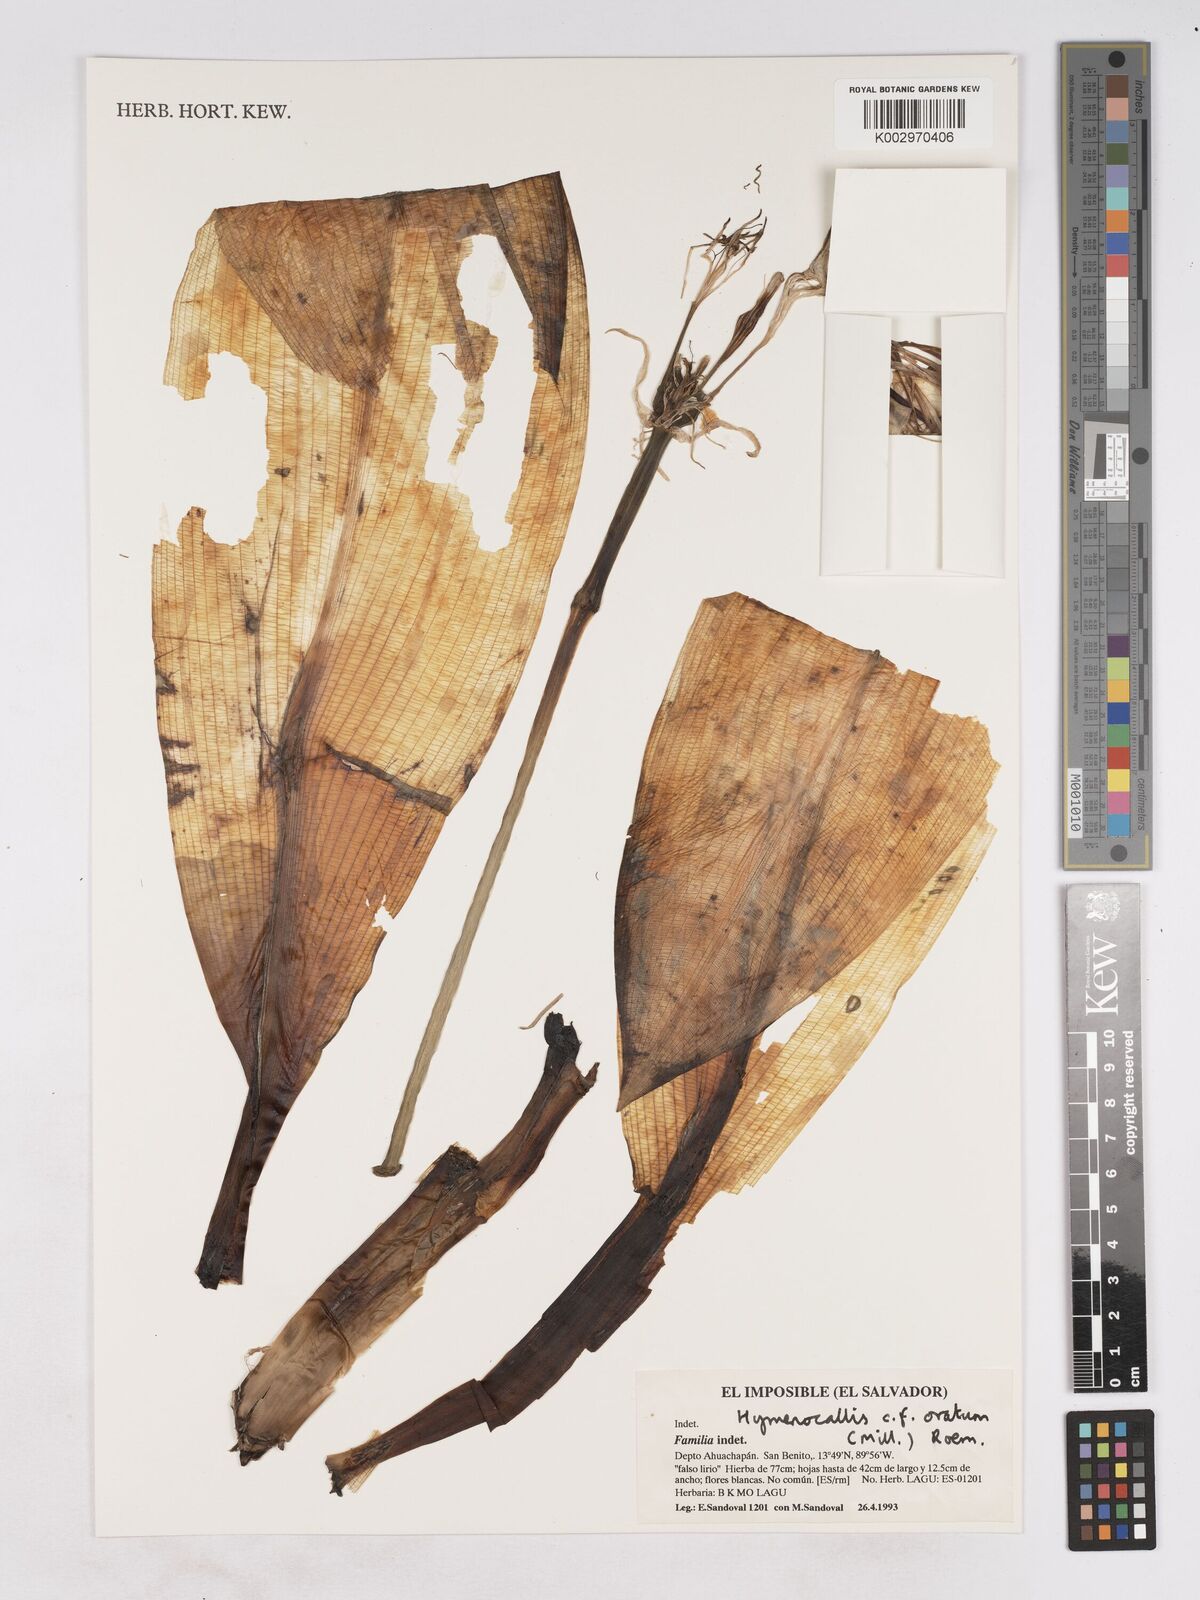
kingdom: Plantae
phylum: Tracheophyta
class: Liliopsida
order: Asparagales
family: Amaryllidaceae
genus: Hymenocallis
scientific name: Hymenocallis
